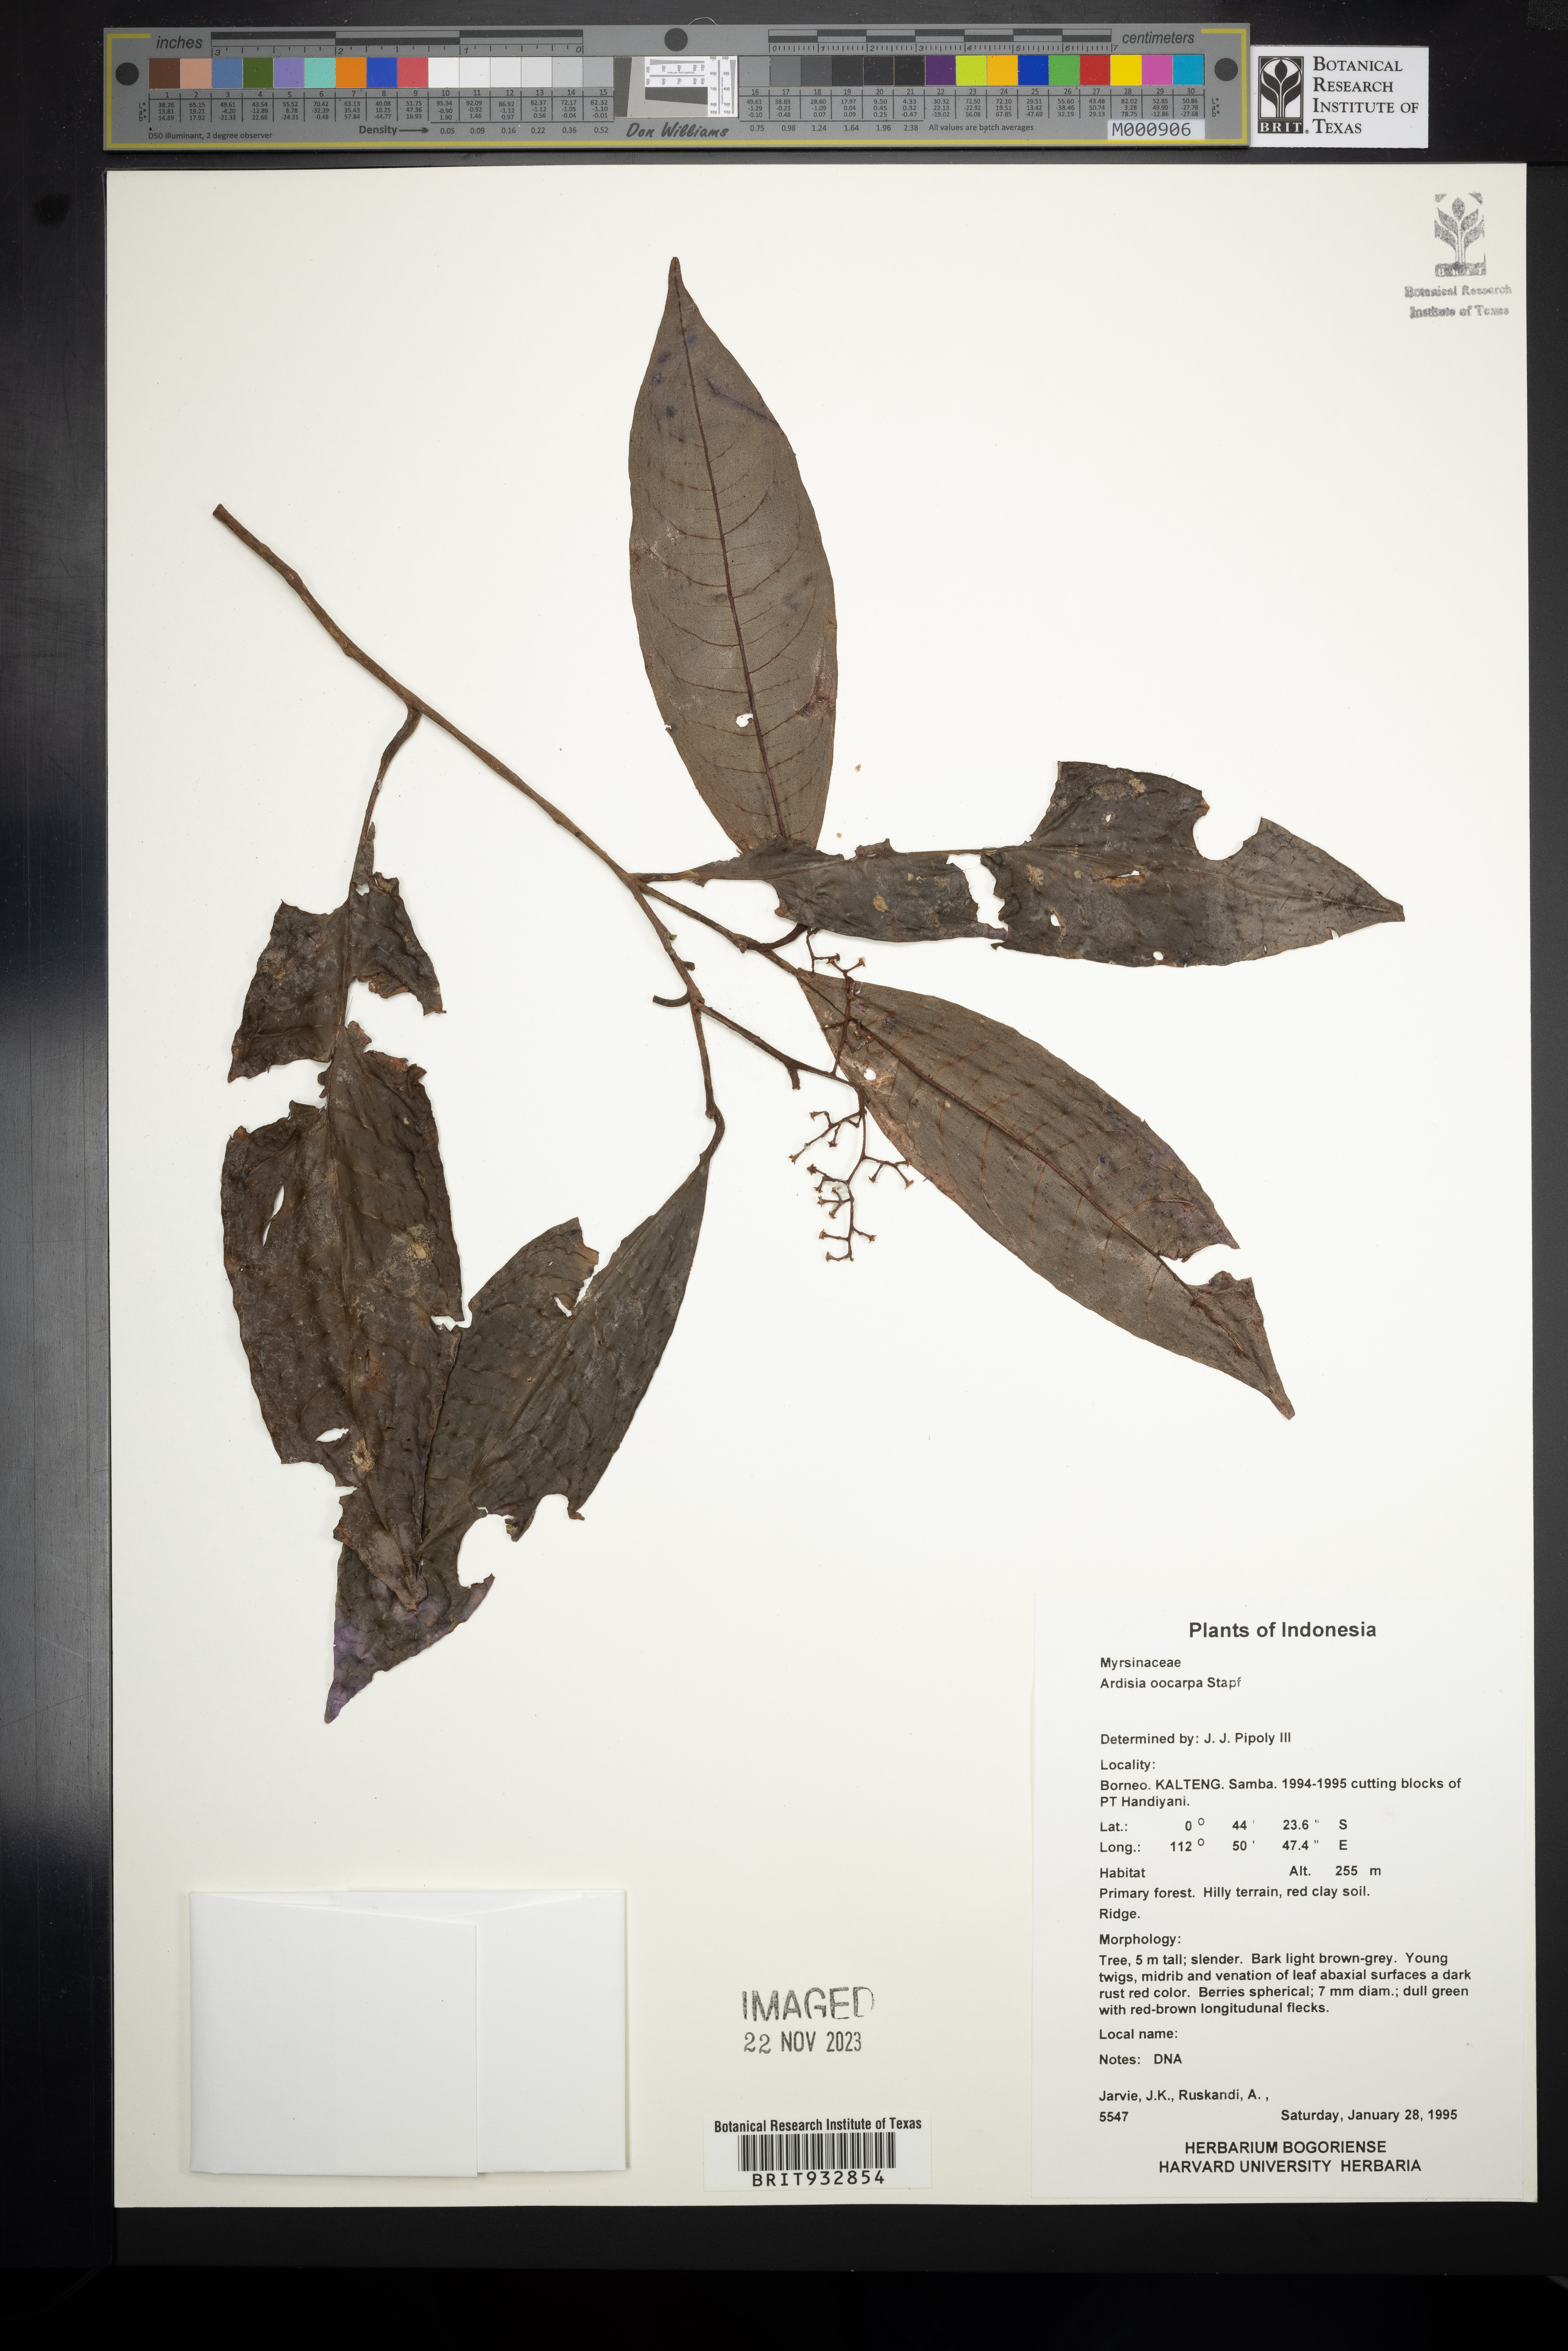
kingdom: Plantae
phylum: Tracheophyta
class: Magnoliopsida
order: Ericales
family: Primulaceae
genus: Ardisia
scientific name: Ardisia
